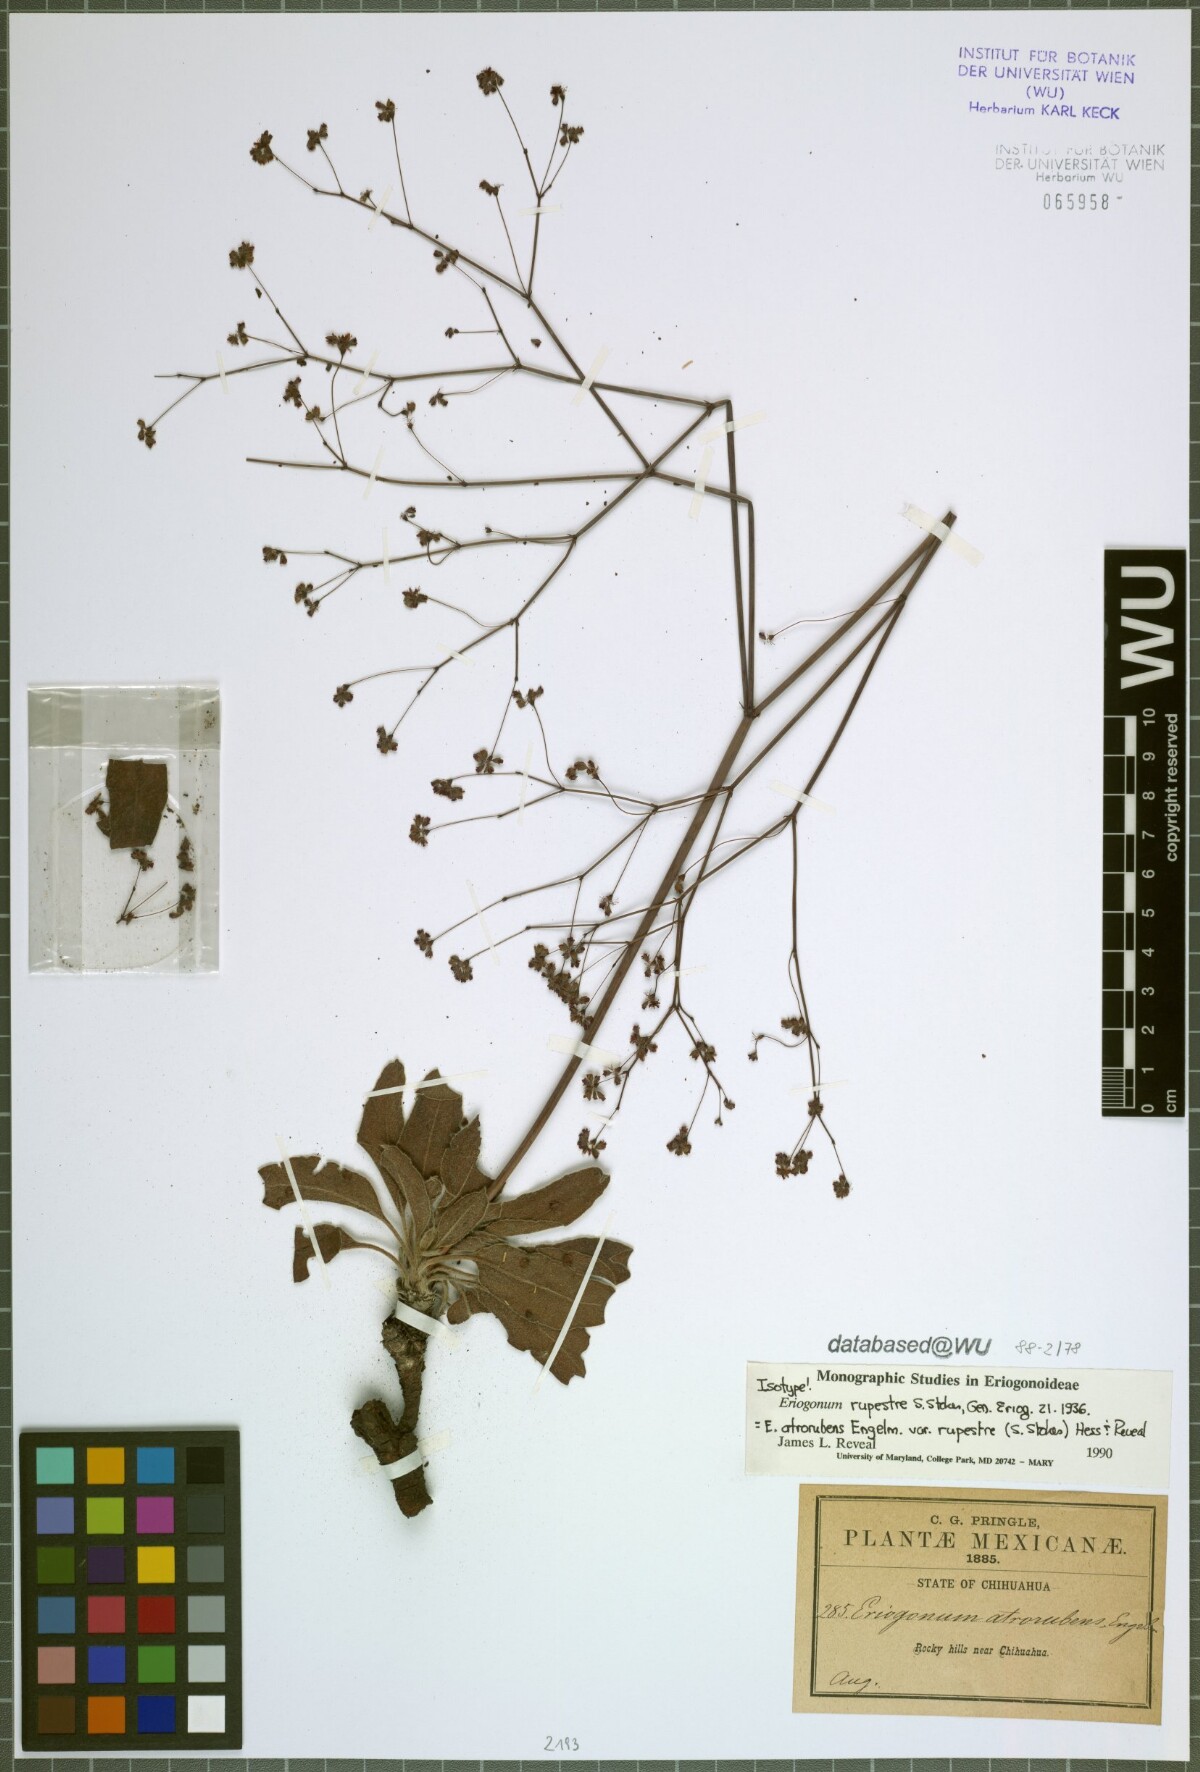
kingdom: Plantae
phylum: Tracheophyta
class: Magnoliopsida
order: Caryophyllales
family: Polygonaceae
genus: Eriogonum
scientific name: Eriogonum atrorubens
